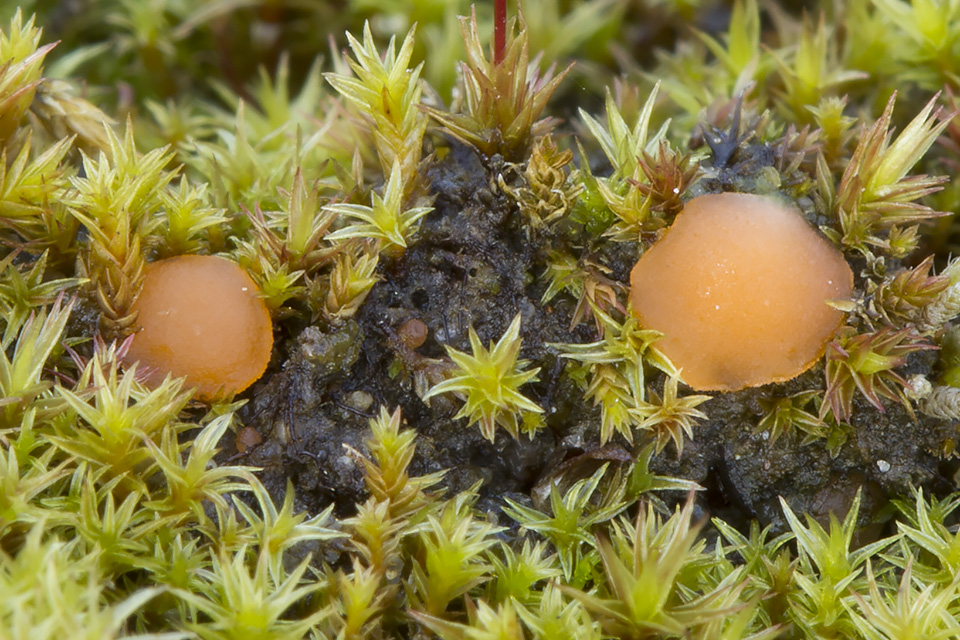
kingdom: Fungi
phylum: Ascomycota
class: Pezizomycetes
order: Pezizales
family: Pyronemataceae
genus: Octospora
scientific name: Octospora rustica
